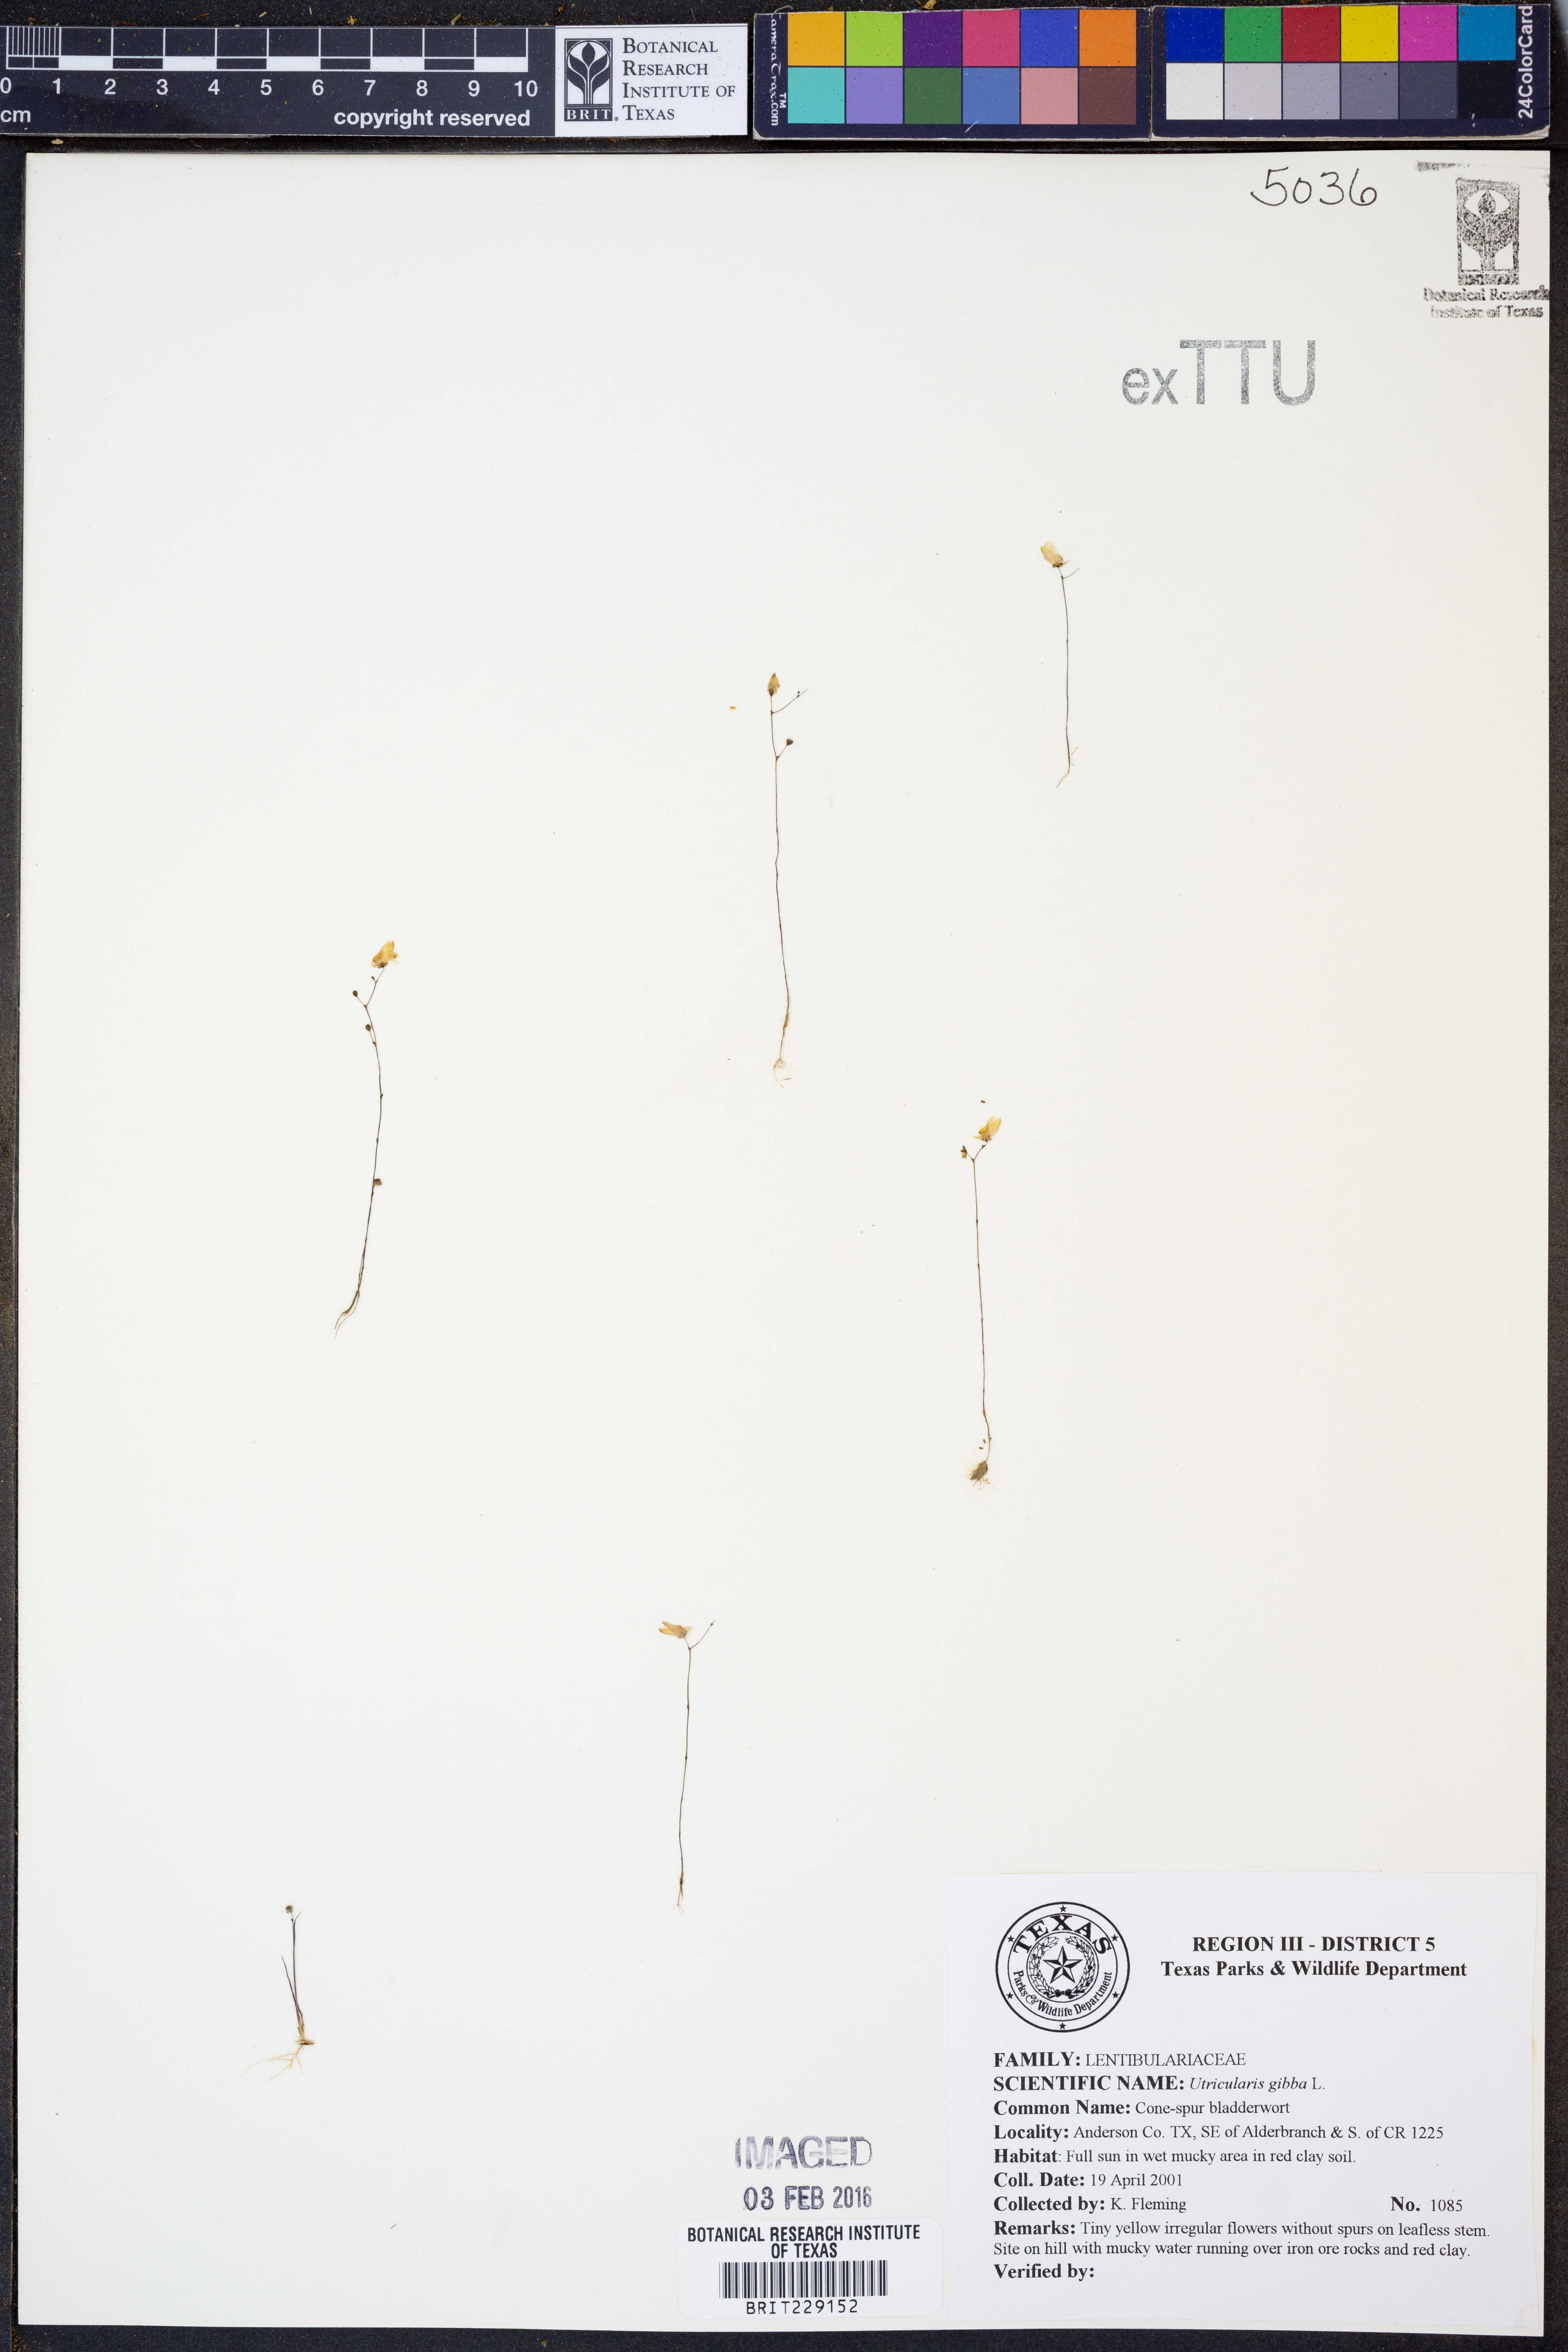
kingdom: Plantae
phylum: Tracheophyta
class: Magnoliopsida
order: Lamiales
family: Lentibulariaceae
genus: Utricularia
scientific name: Utricularia gibba
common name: Humped bladderwort
